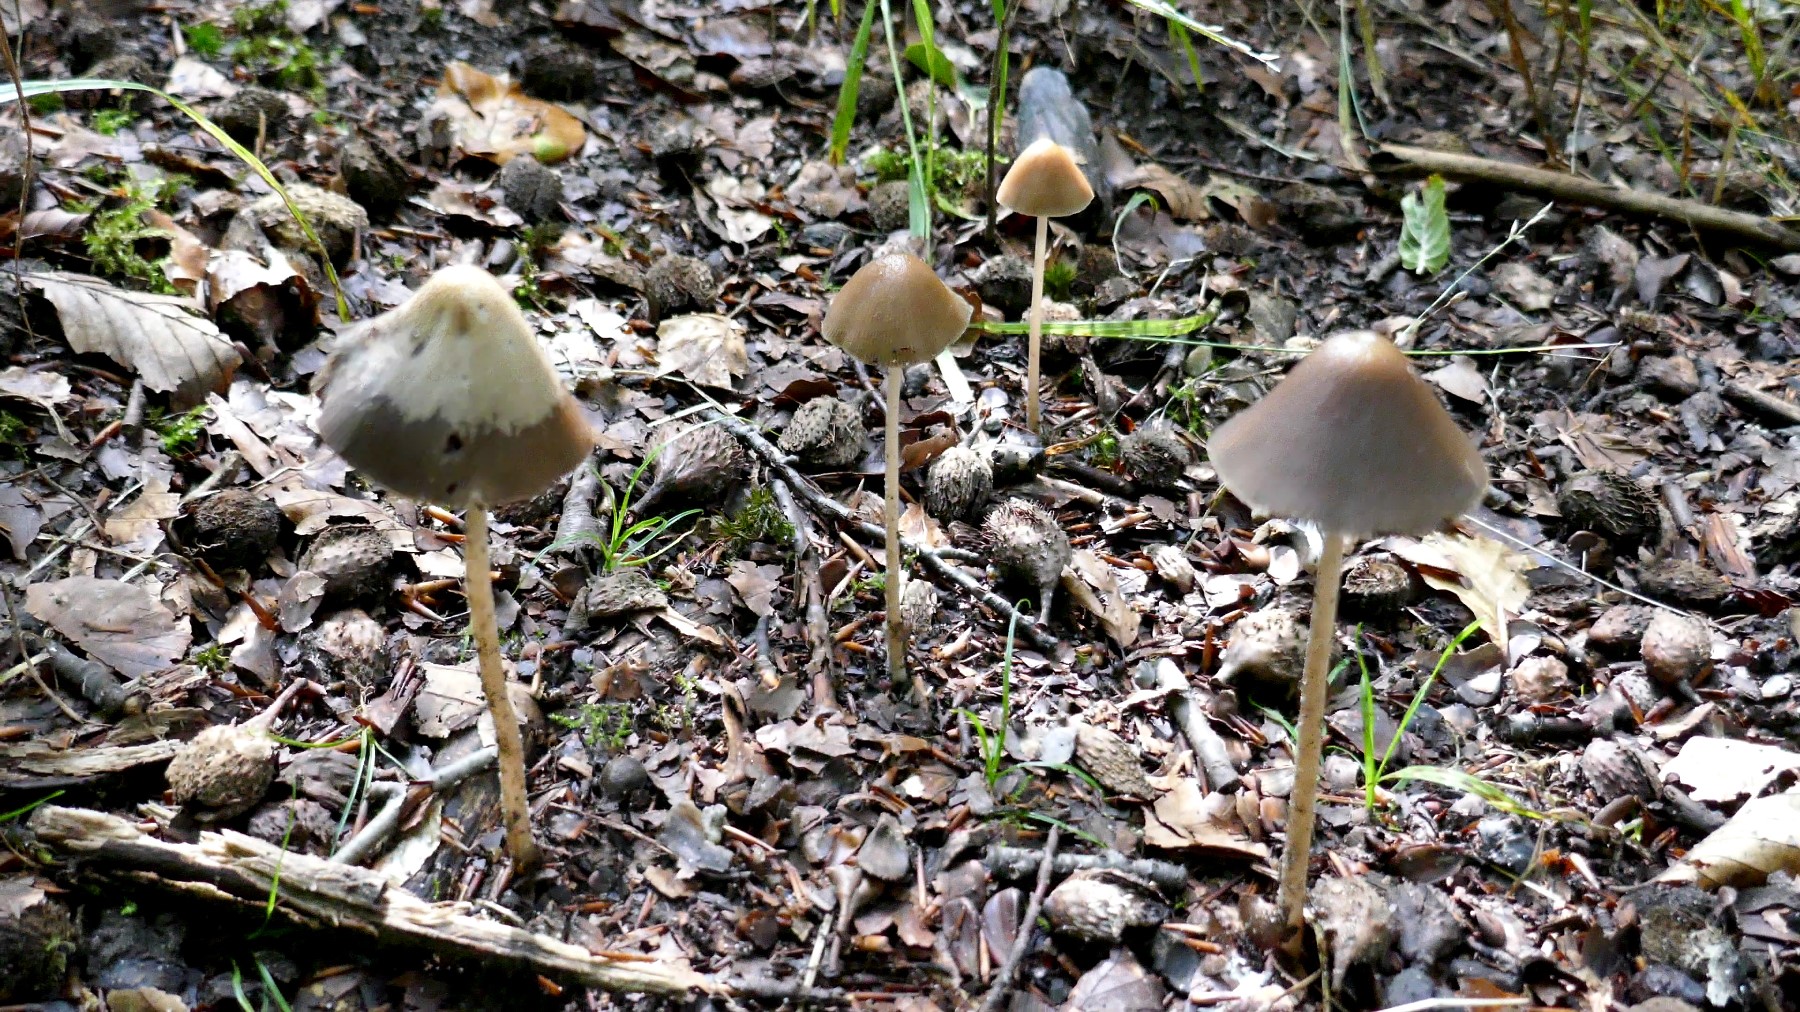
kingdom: Fungi
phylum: Basidiomycota
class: Agaricomycetes
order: Agaricales
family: Psathyrellaceae
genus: Parasola
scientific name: Parasola conopilea
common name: kegle-hjulhat
